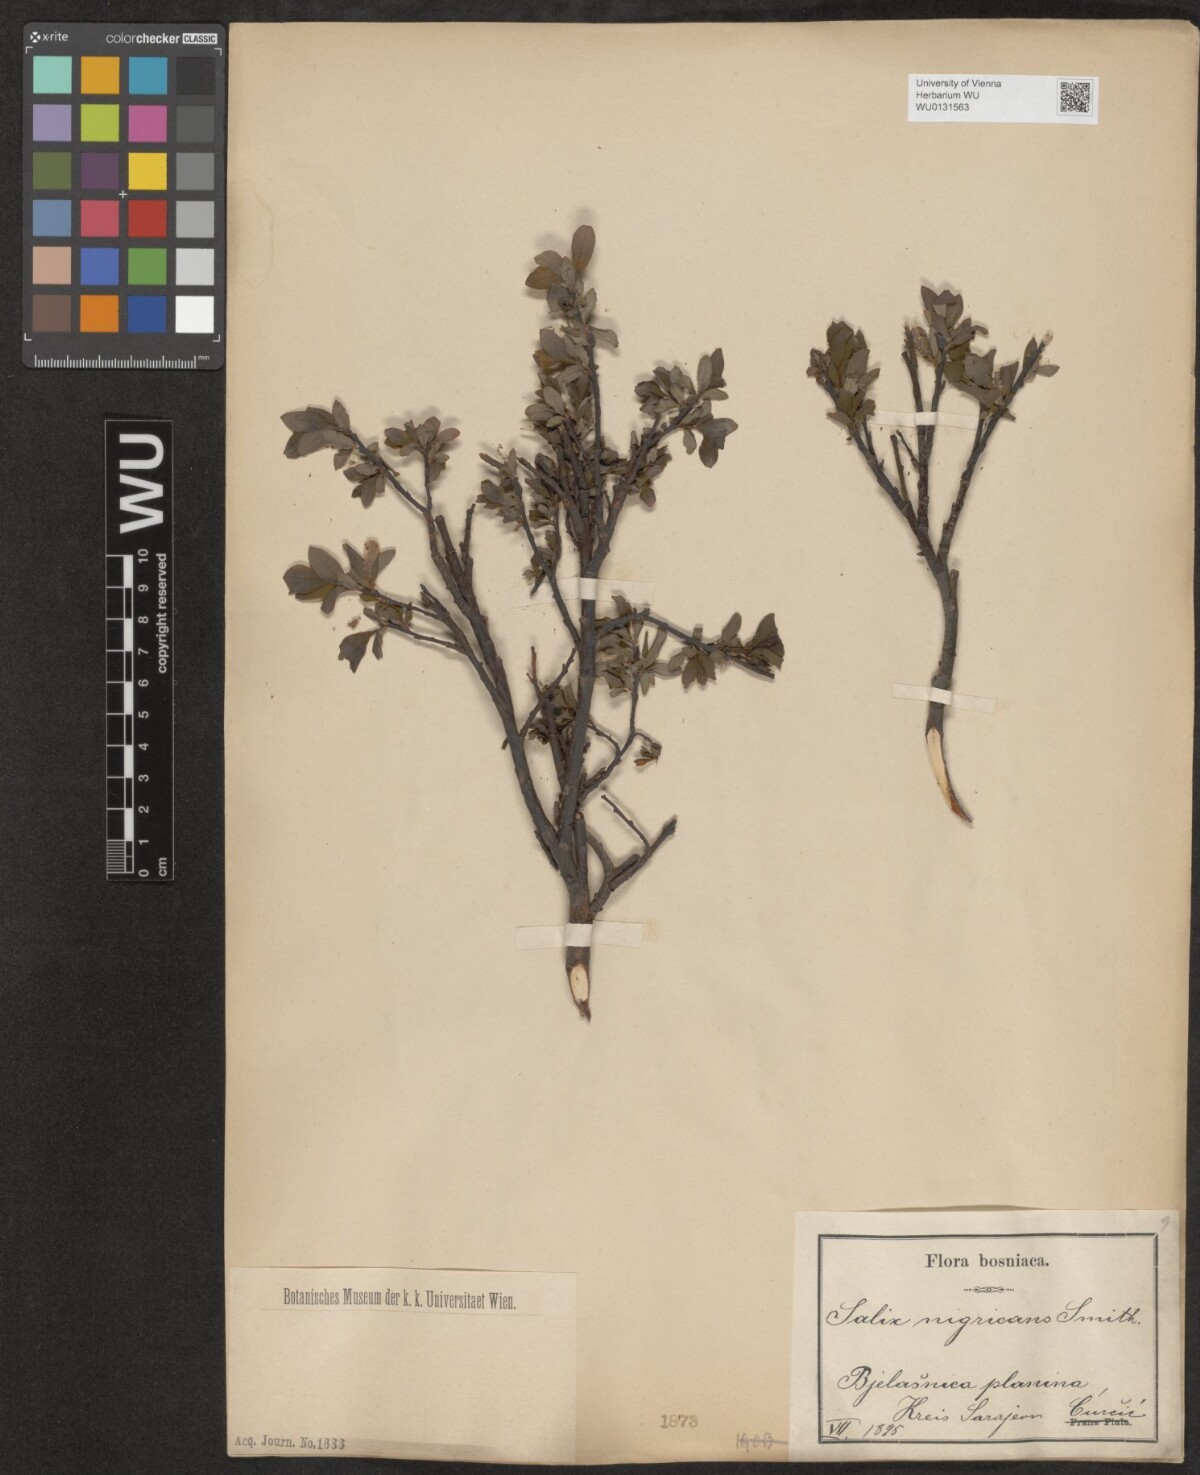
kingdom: Plantae
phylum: Tracheophyta
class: Magnoliopsida
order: Malpighiales
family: Salicaceae
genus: Salix
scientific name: Salix myrsinifolia
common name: Dark-leaved willow
